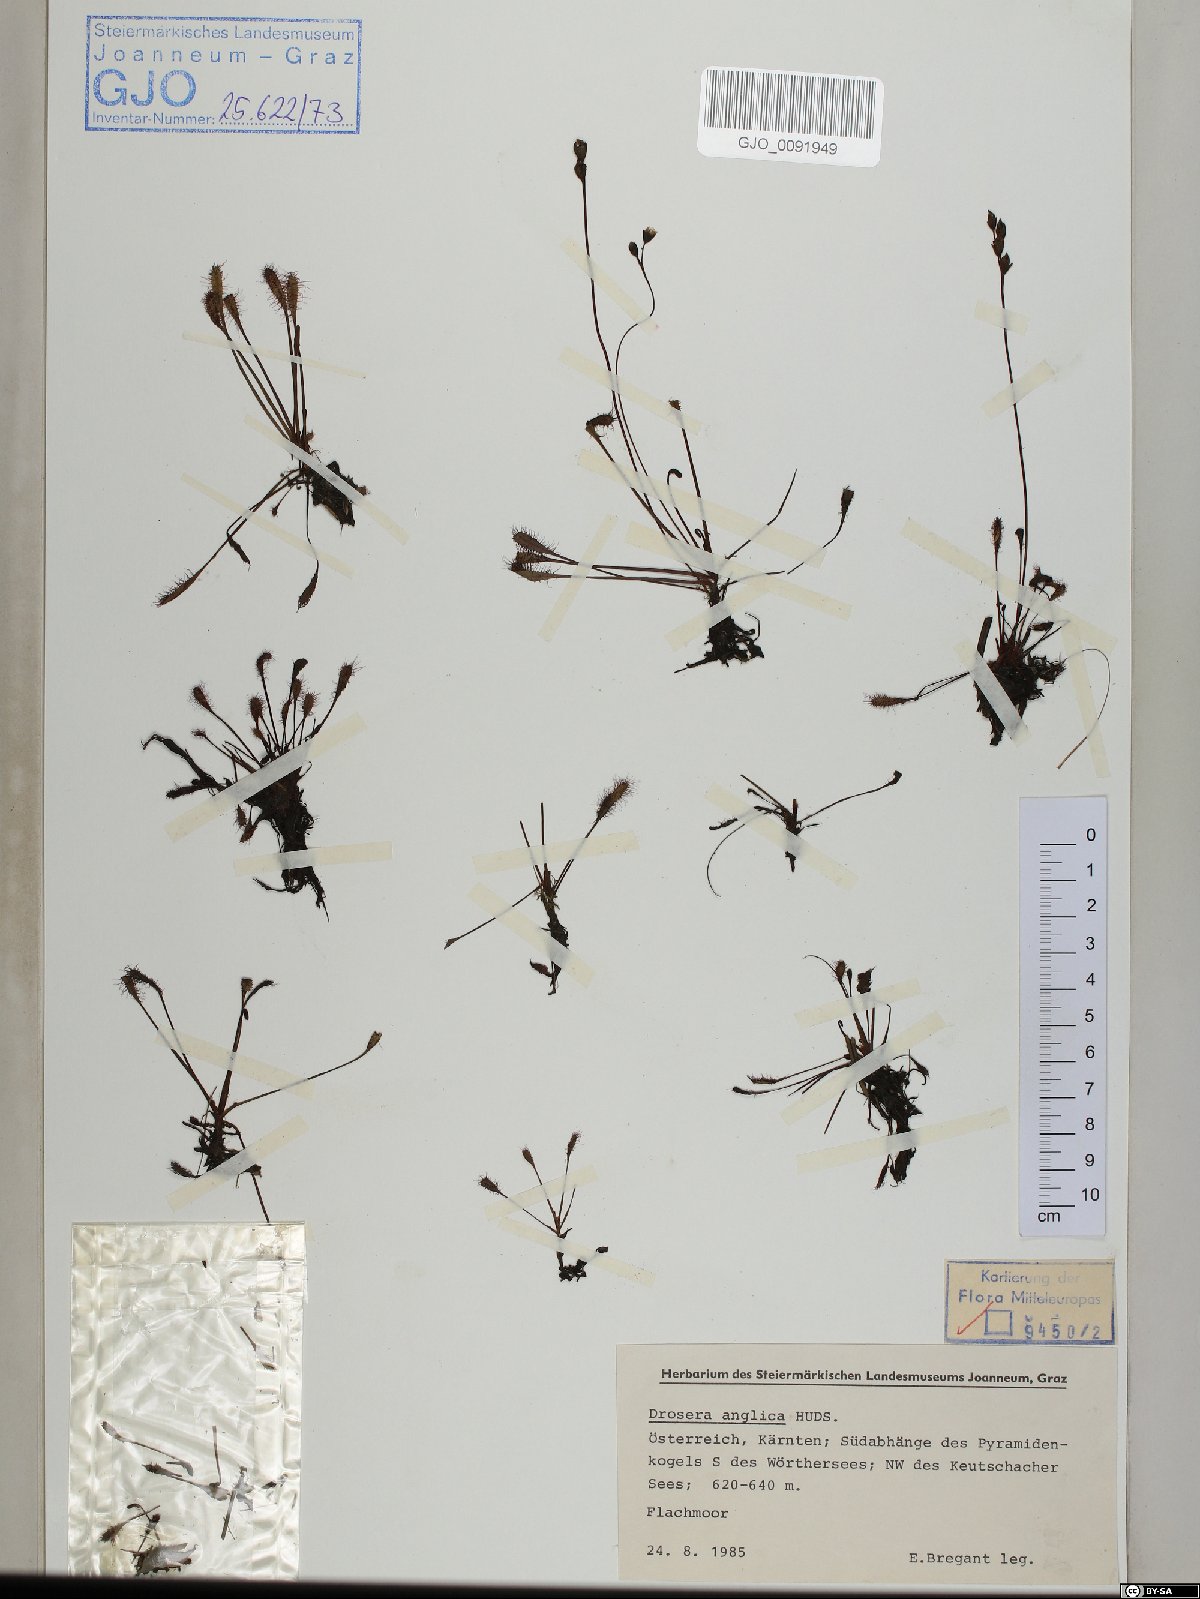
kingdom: Plantae
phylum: Tracheophyta
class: Magnoliopsida
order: Caryophyllales
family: Droseraceae
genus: Drosera
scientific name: Drosera anglica
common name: Great sundew
